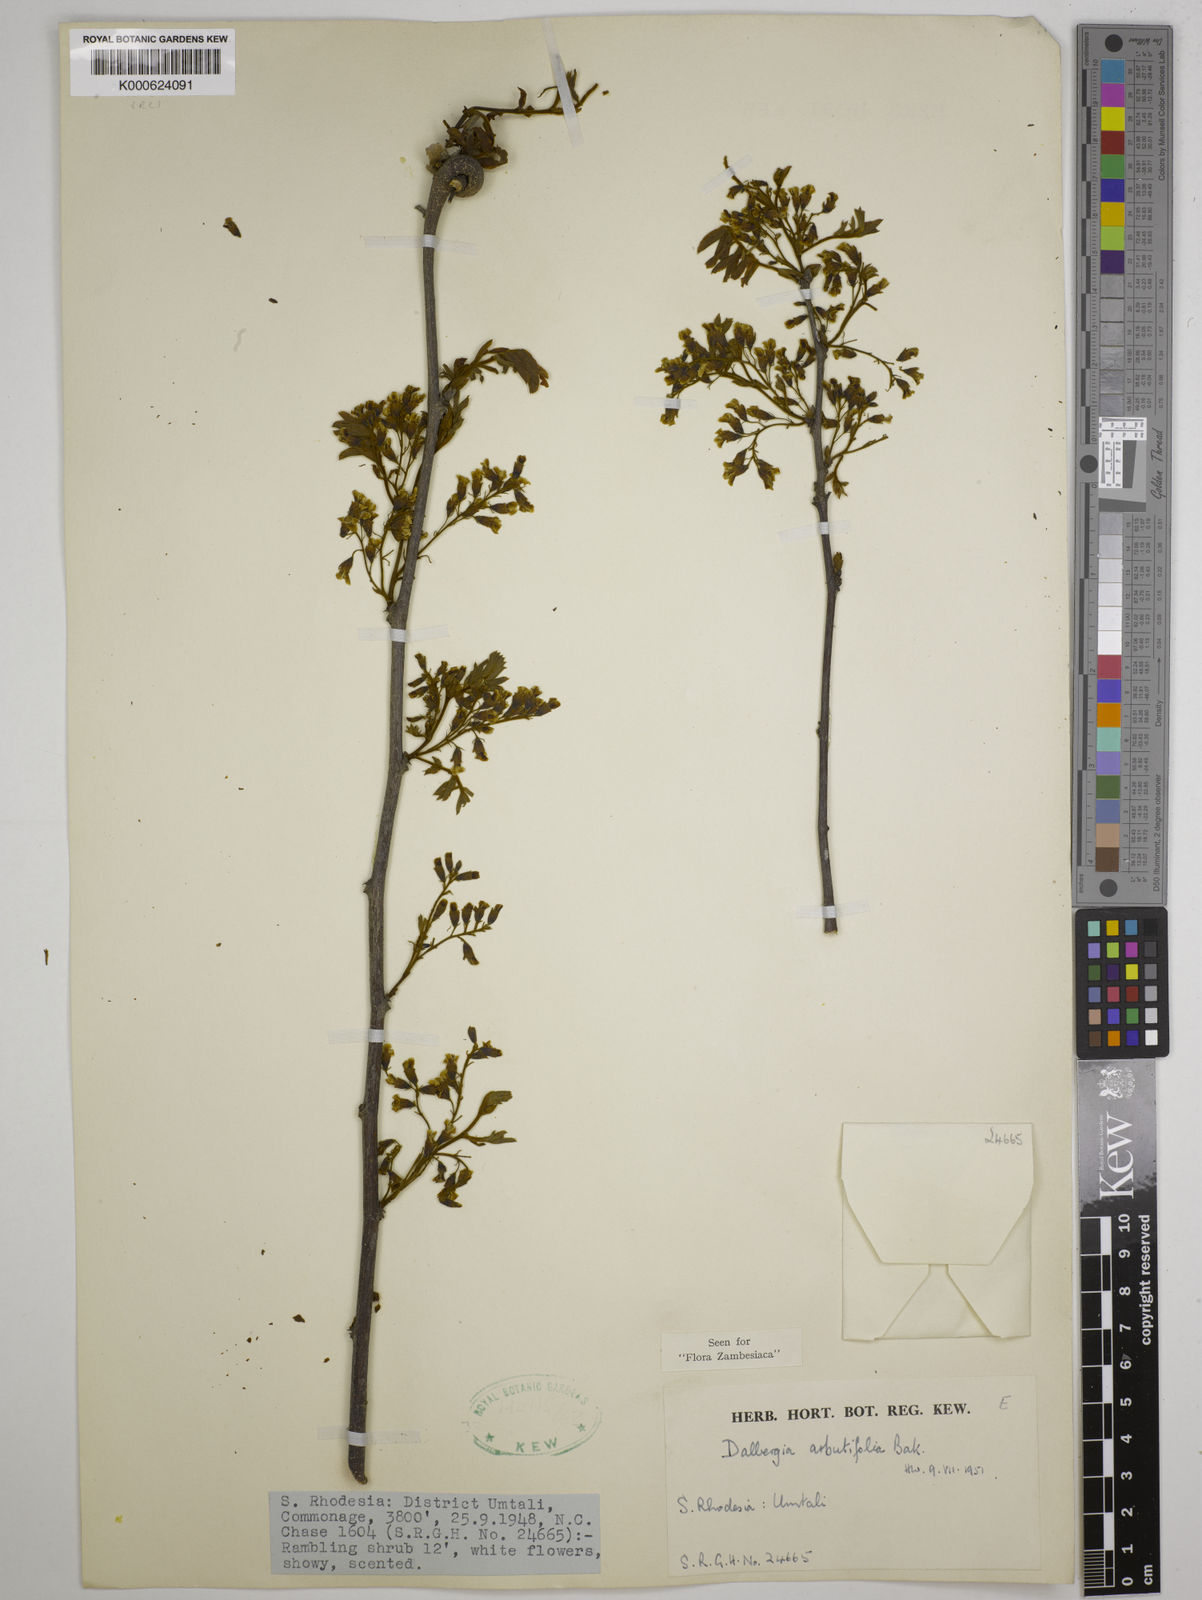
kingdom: Plantae
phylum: Tracheophyta
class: Magnoliopsida
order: Fabales
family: Fabaceae
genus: Dalbergia
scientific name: Dalbergia arbutifolia
